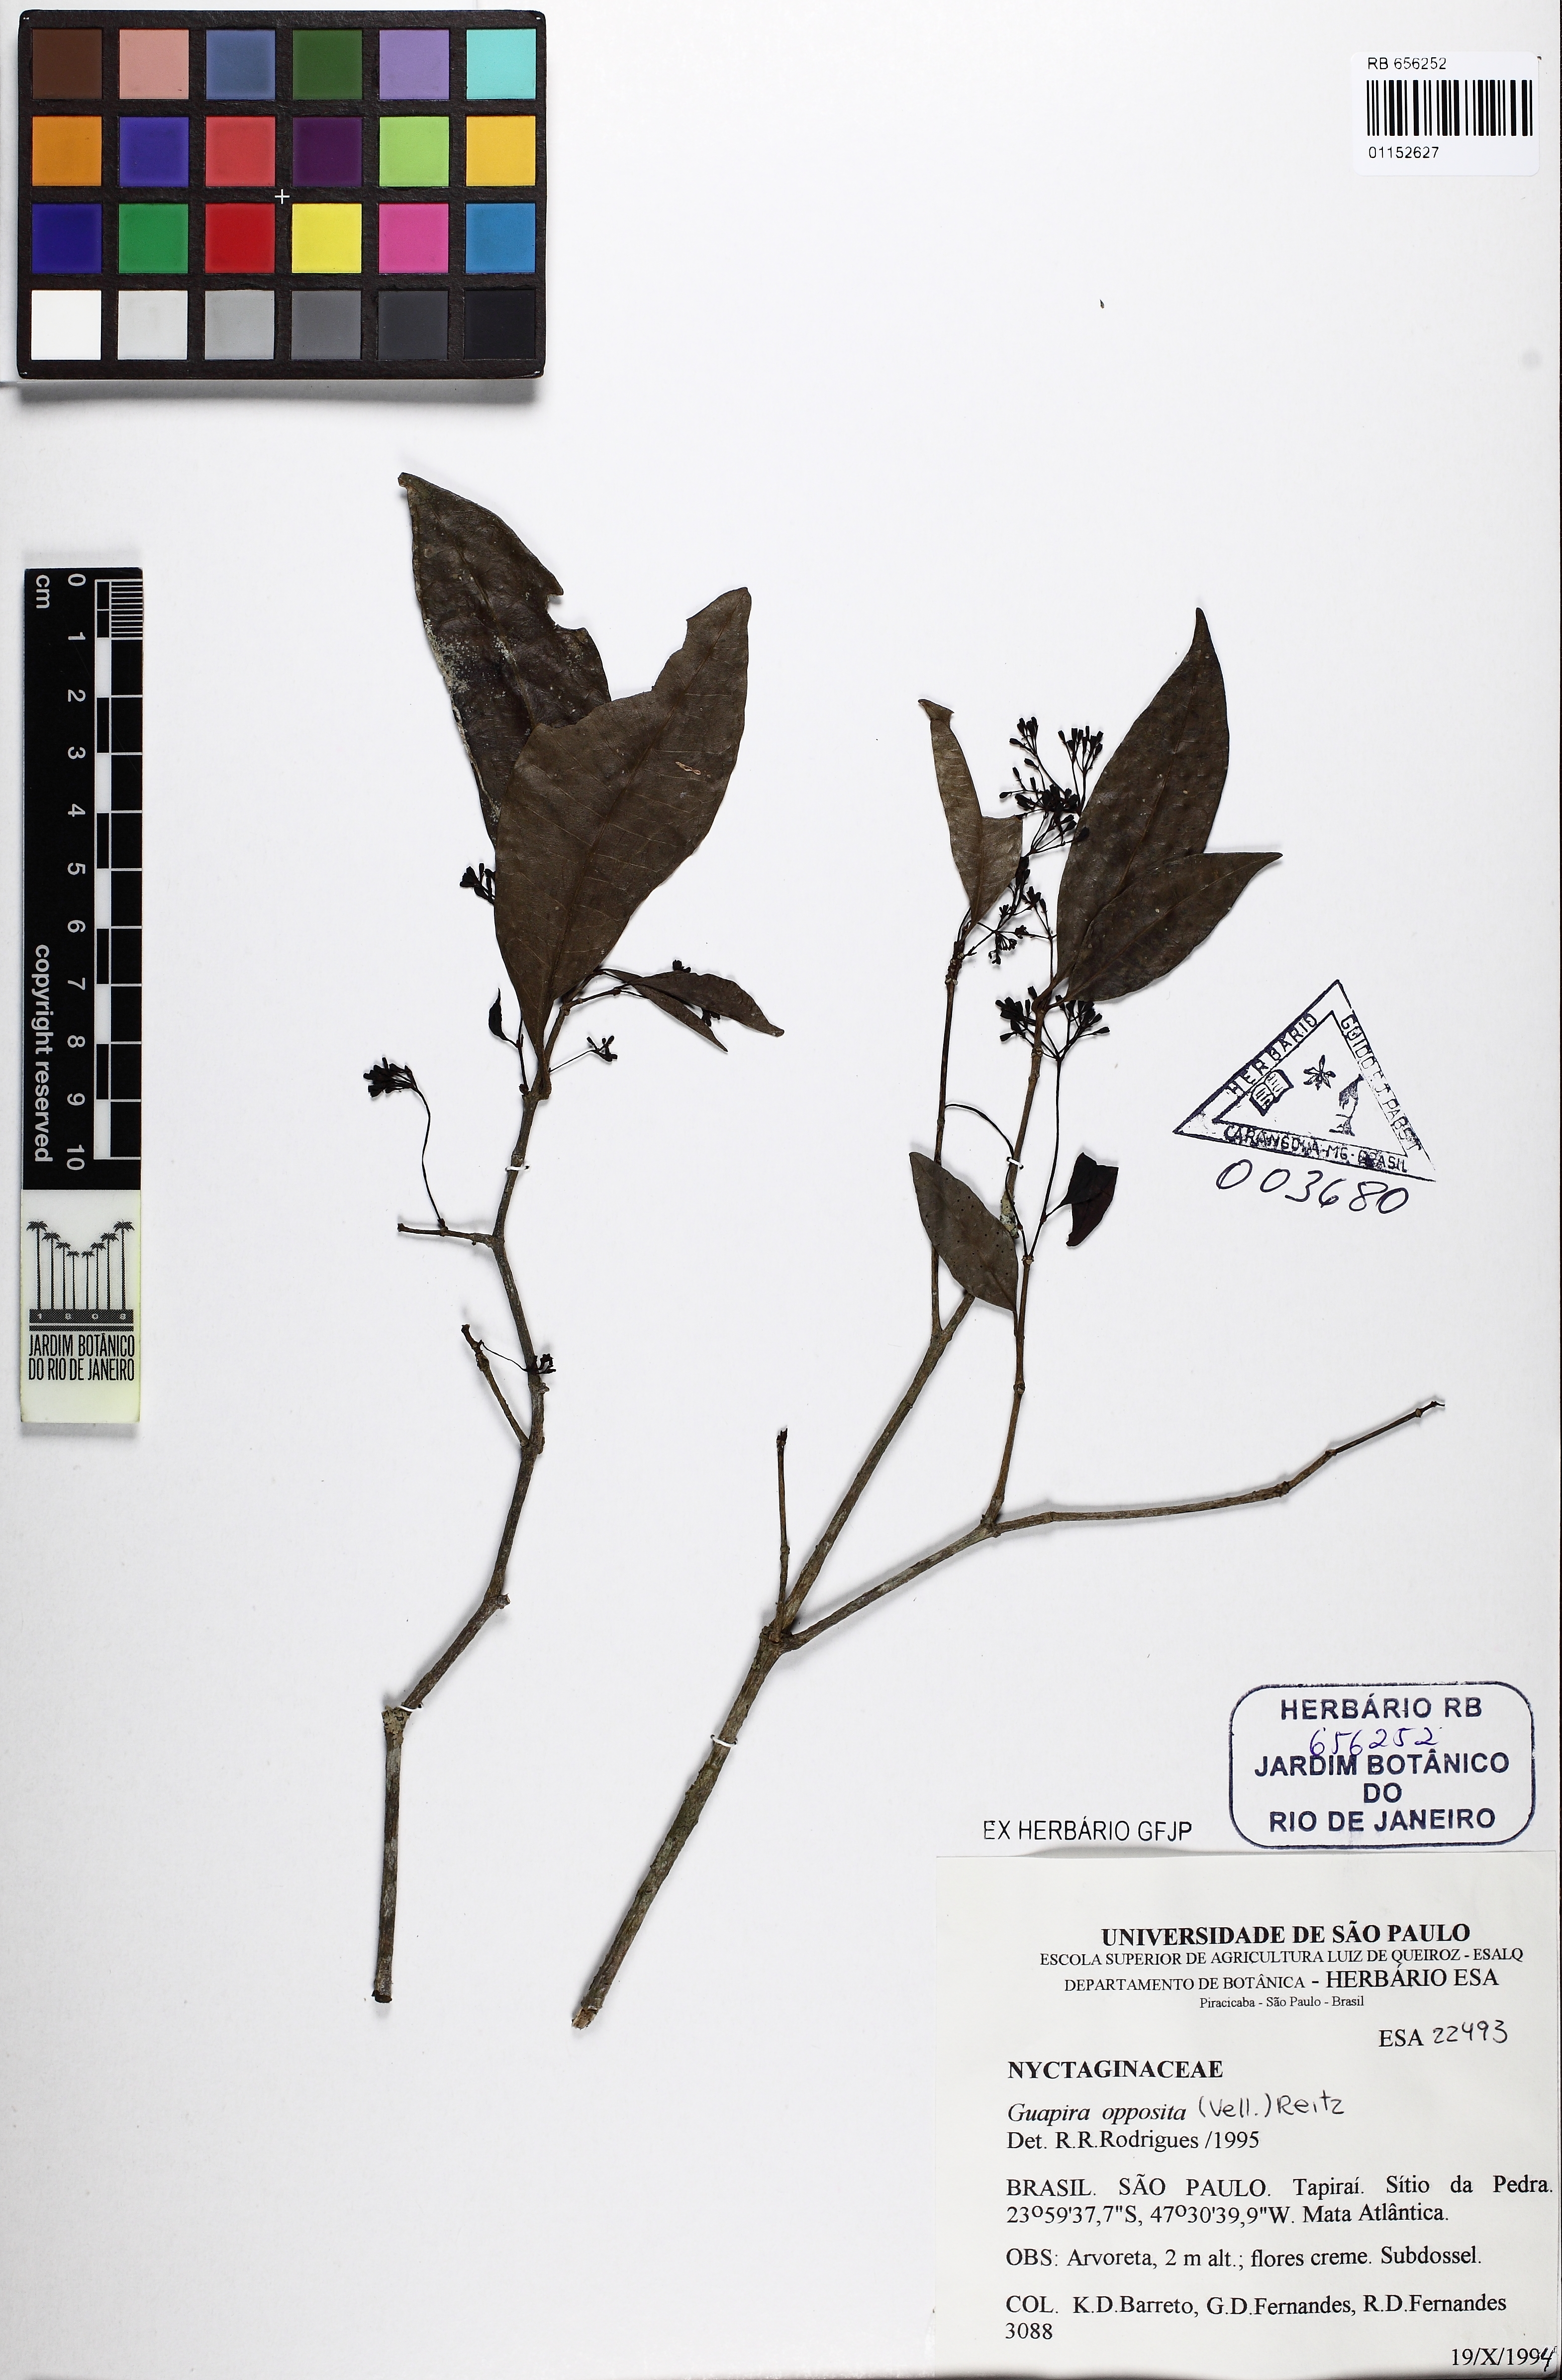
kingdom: Plantae
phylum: Tracheophyta
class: Magnoliopsida
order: Caryophyllales
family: Nyctaginaceae
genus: Guapira
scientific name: Guapira opposita
